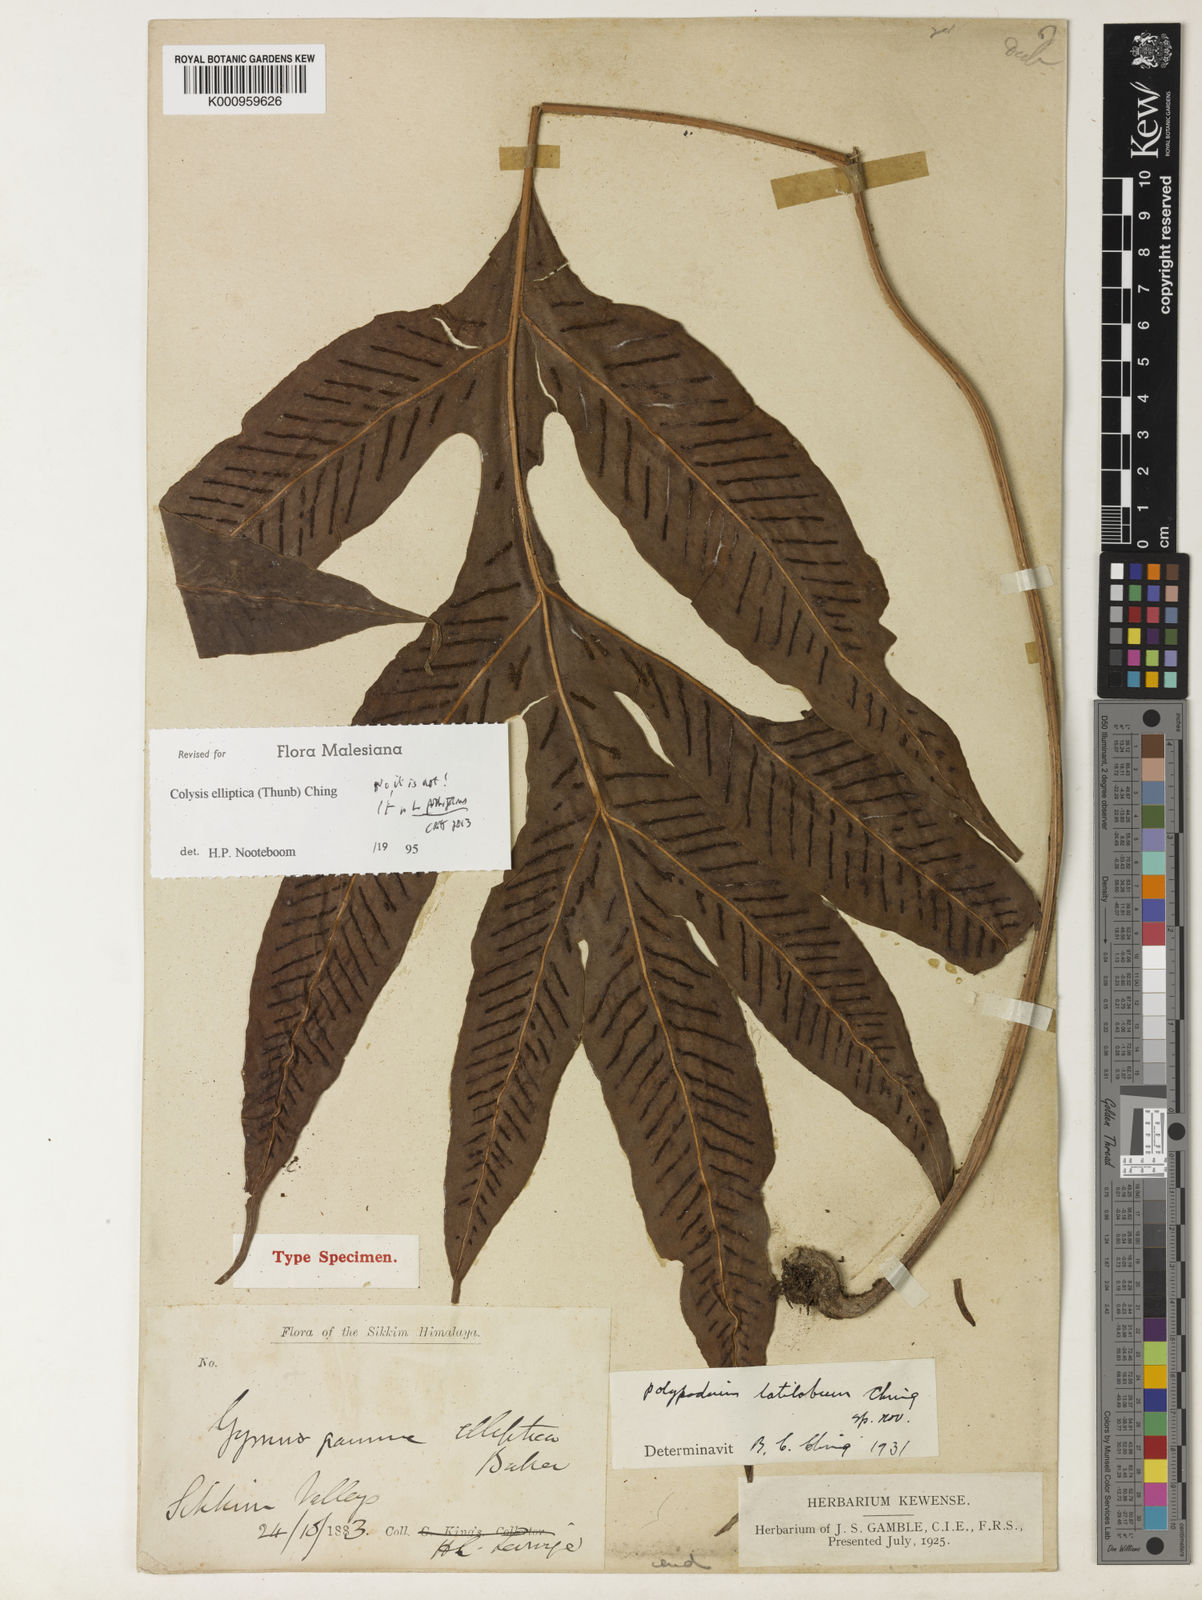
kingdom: Plantae
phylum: Tracheophyta
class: Polypodiopsida
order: Polypodiales
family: Polypodiaceae
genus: Leptochilus
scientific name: Leptochilus pothifolius
